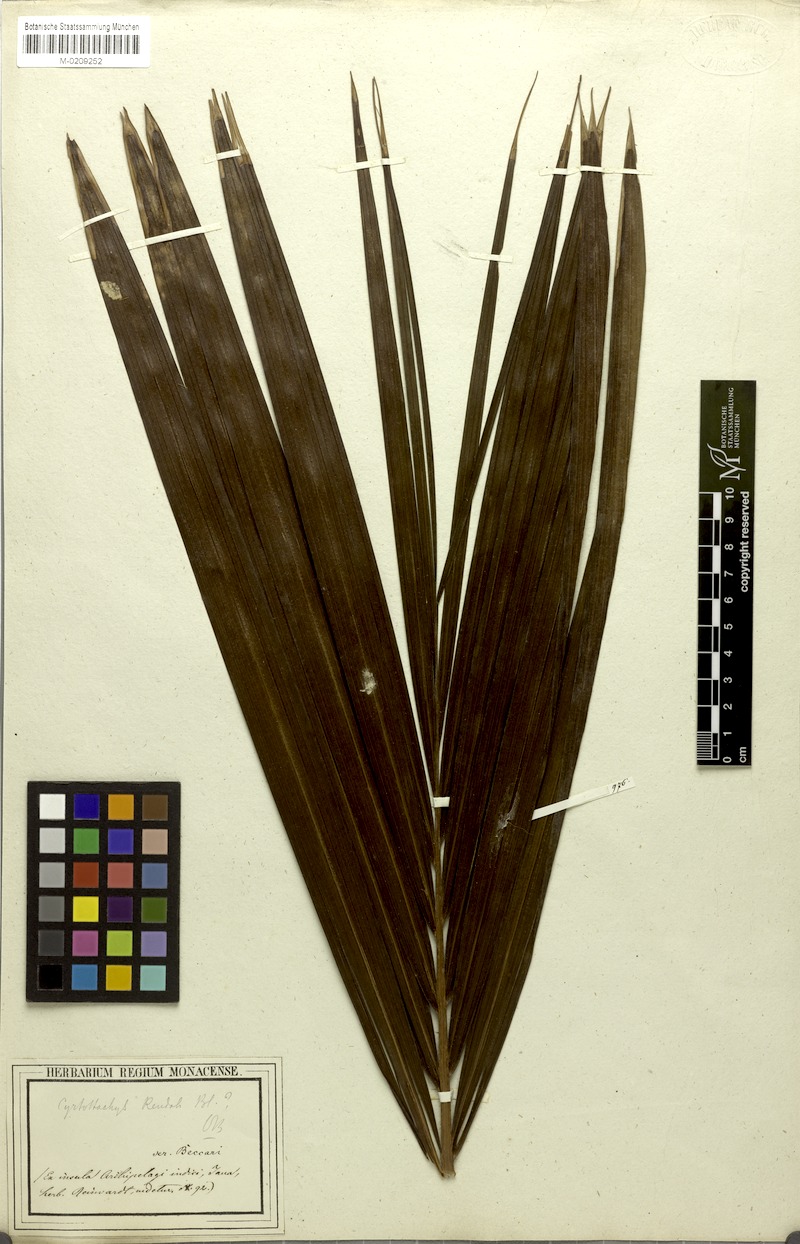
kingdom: Plantae
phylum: Tracheophyta
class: Liliopsida
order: Arecales
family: Arecaceae
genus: Cyrtostachys
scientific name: Cyrtostachys renda
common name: Lipstick palm
